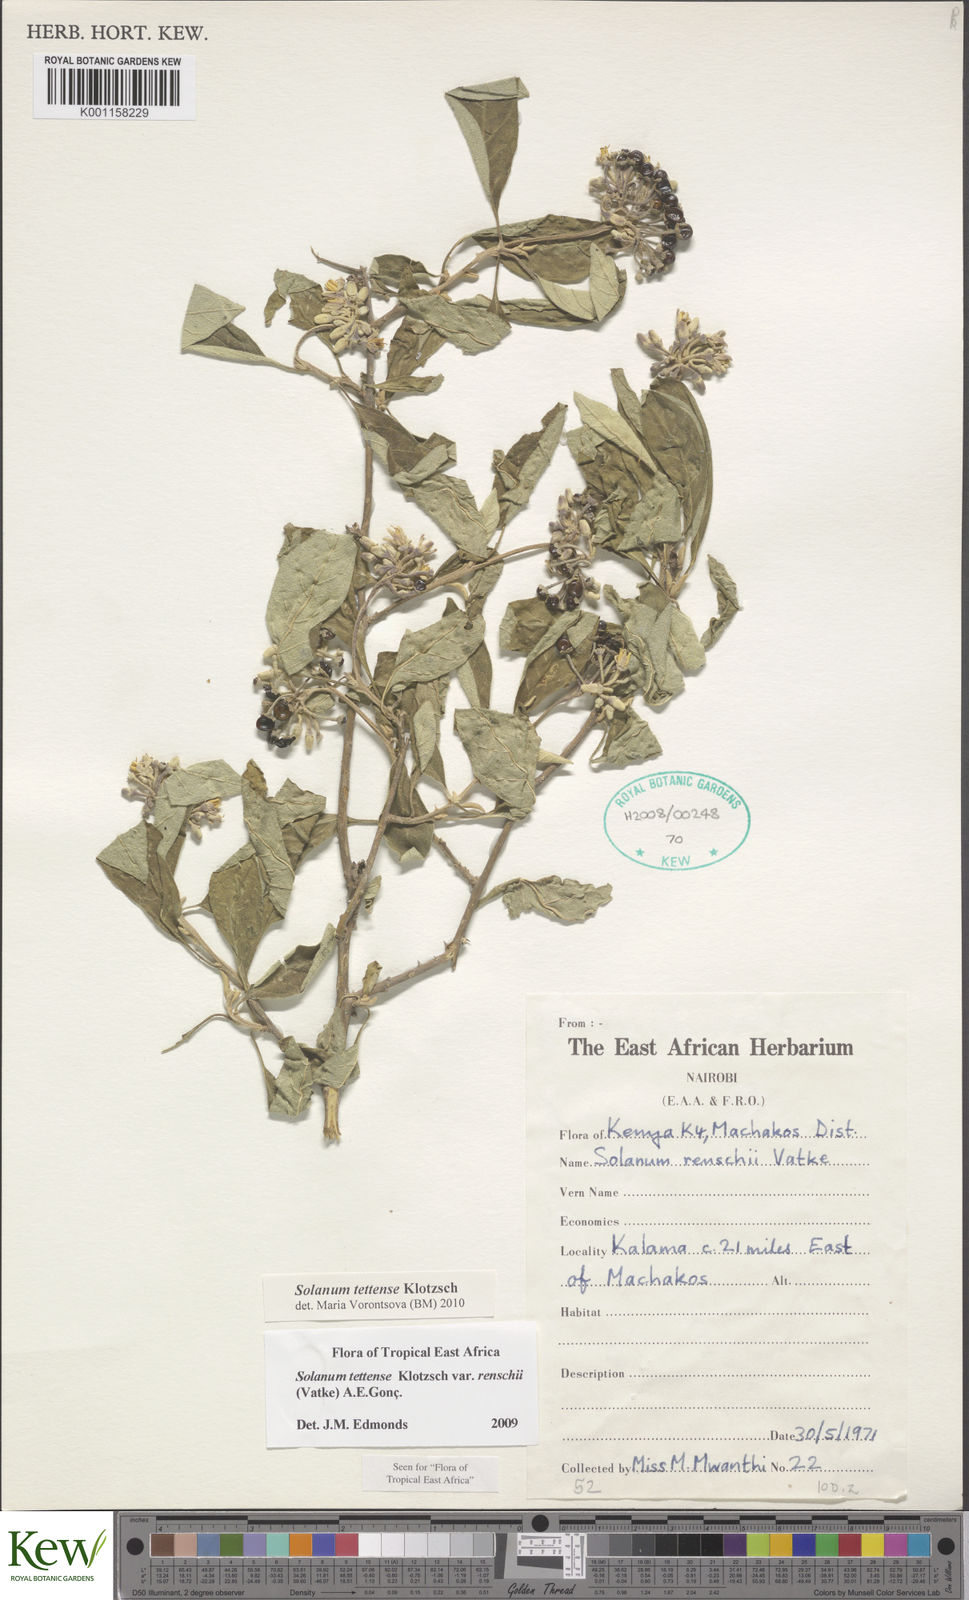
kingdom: Plantae
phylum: Tracheophyta
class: Magnoliopsida
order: Solanales
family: Solanaceae
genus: Solanum
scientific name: Solanum tettense
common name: Mozambique bitter apple
